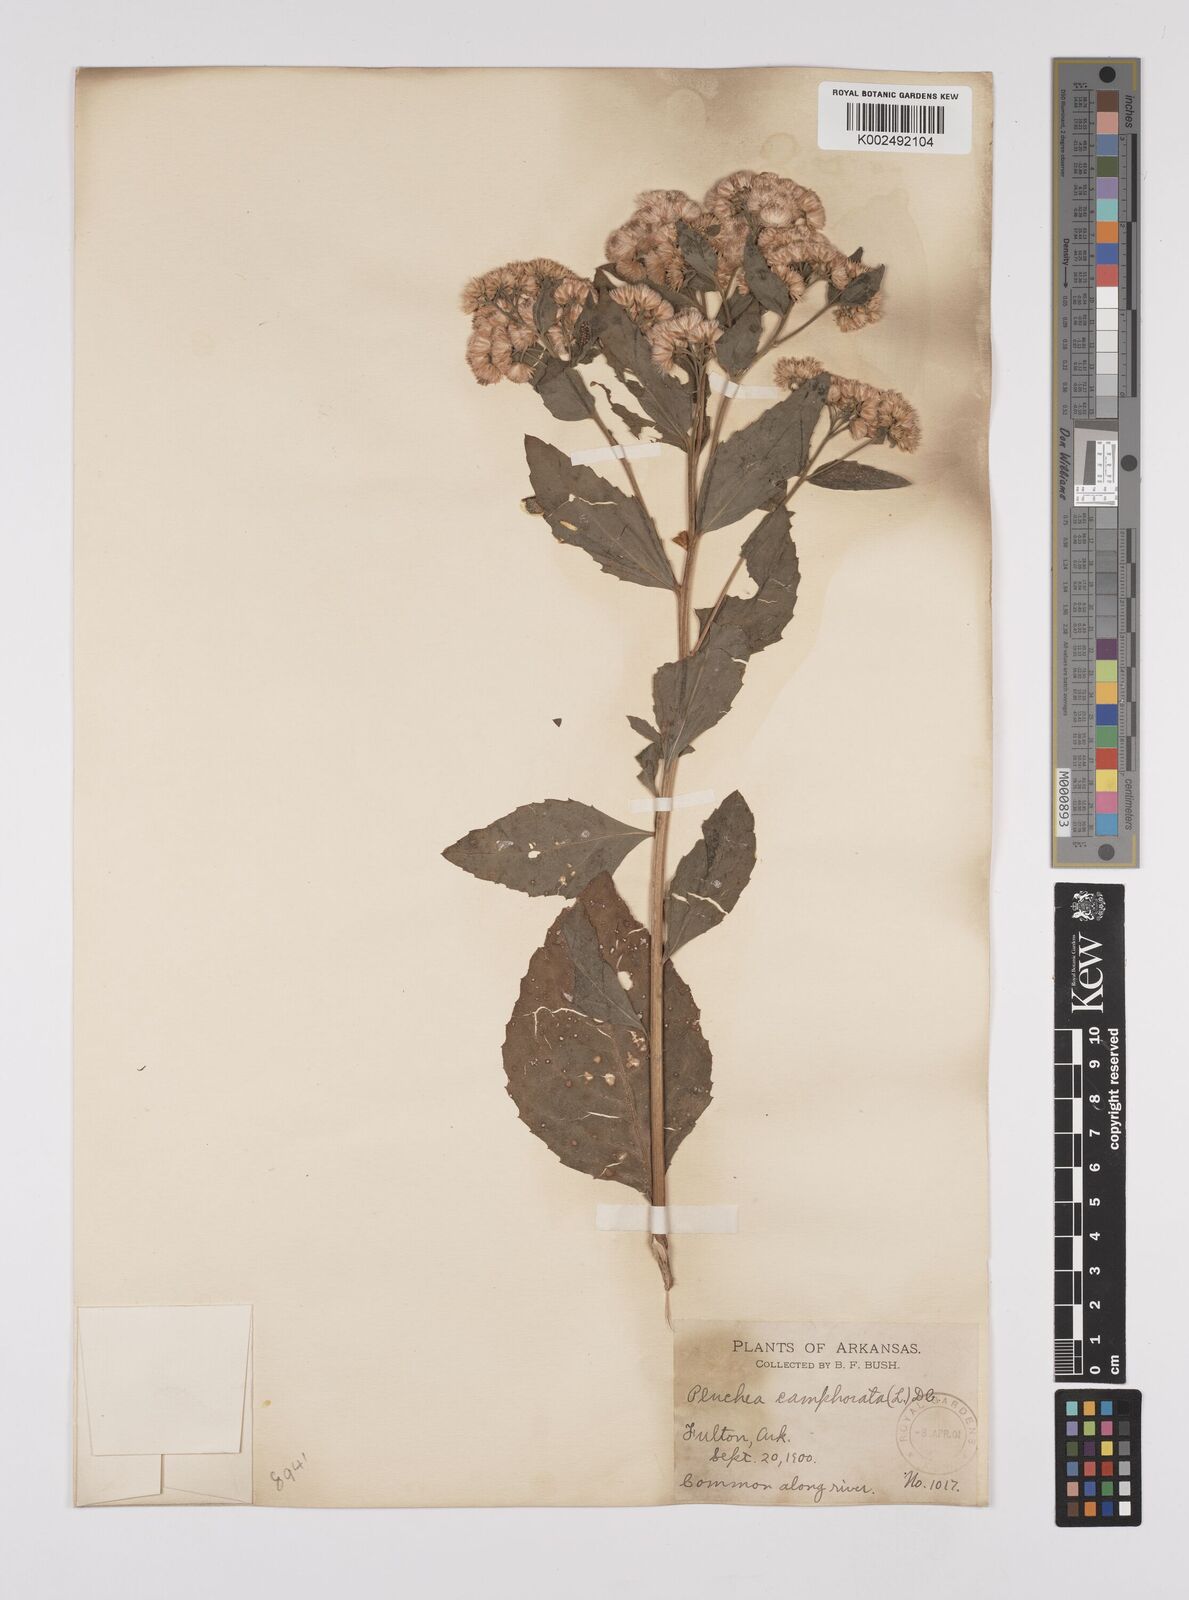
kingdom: Plantae
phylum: Tracheophyta
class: Magnoliopsida
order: Asterales
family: Asteraceae
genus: Pluchea
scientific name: Pluchea
